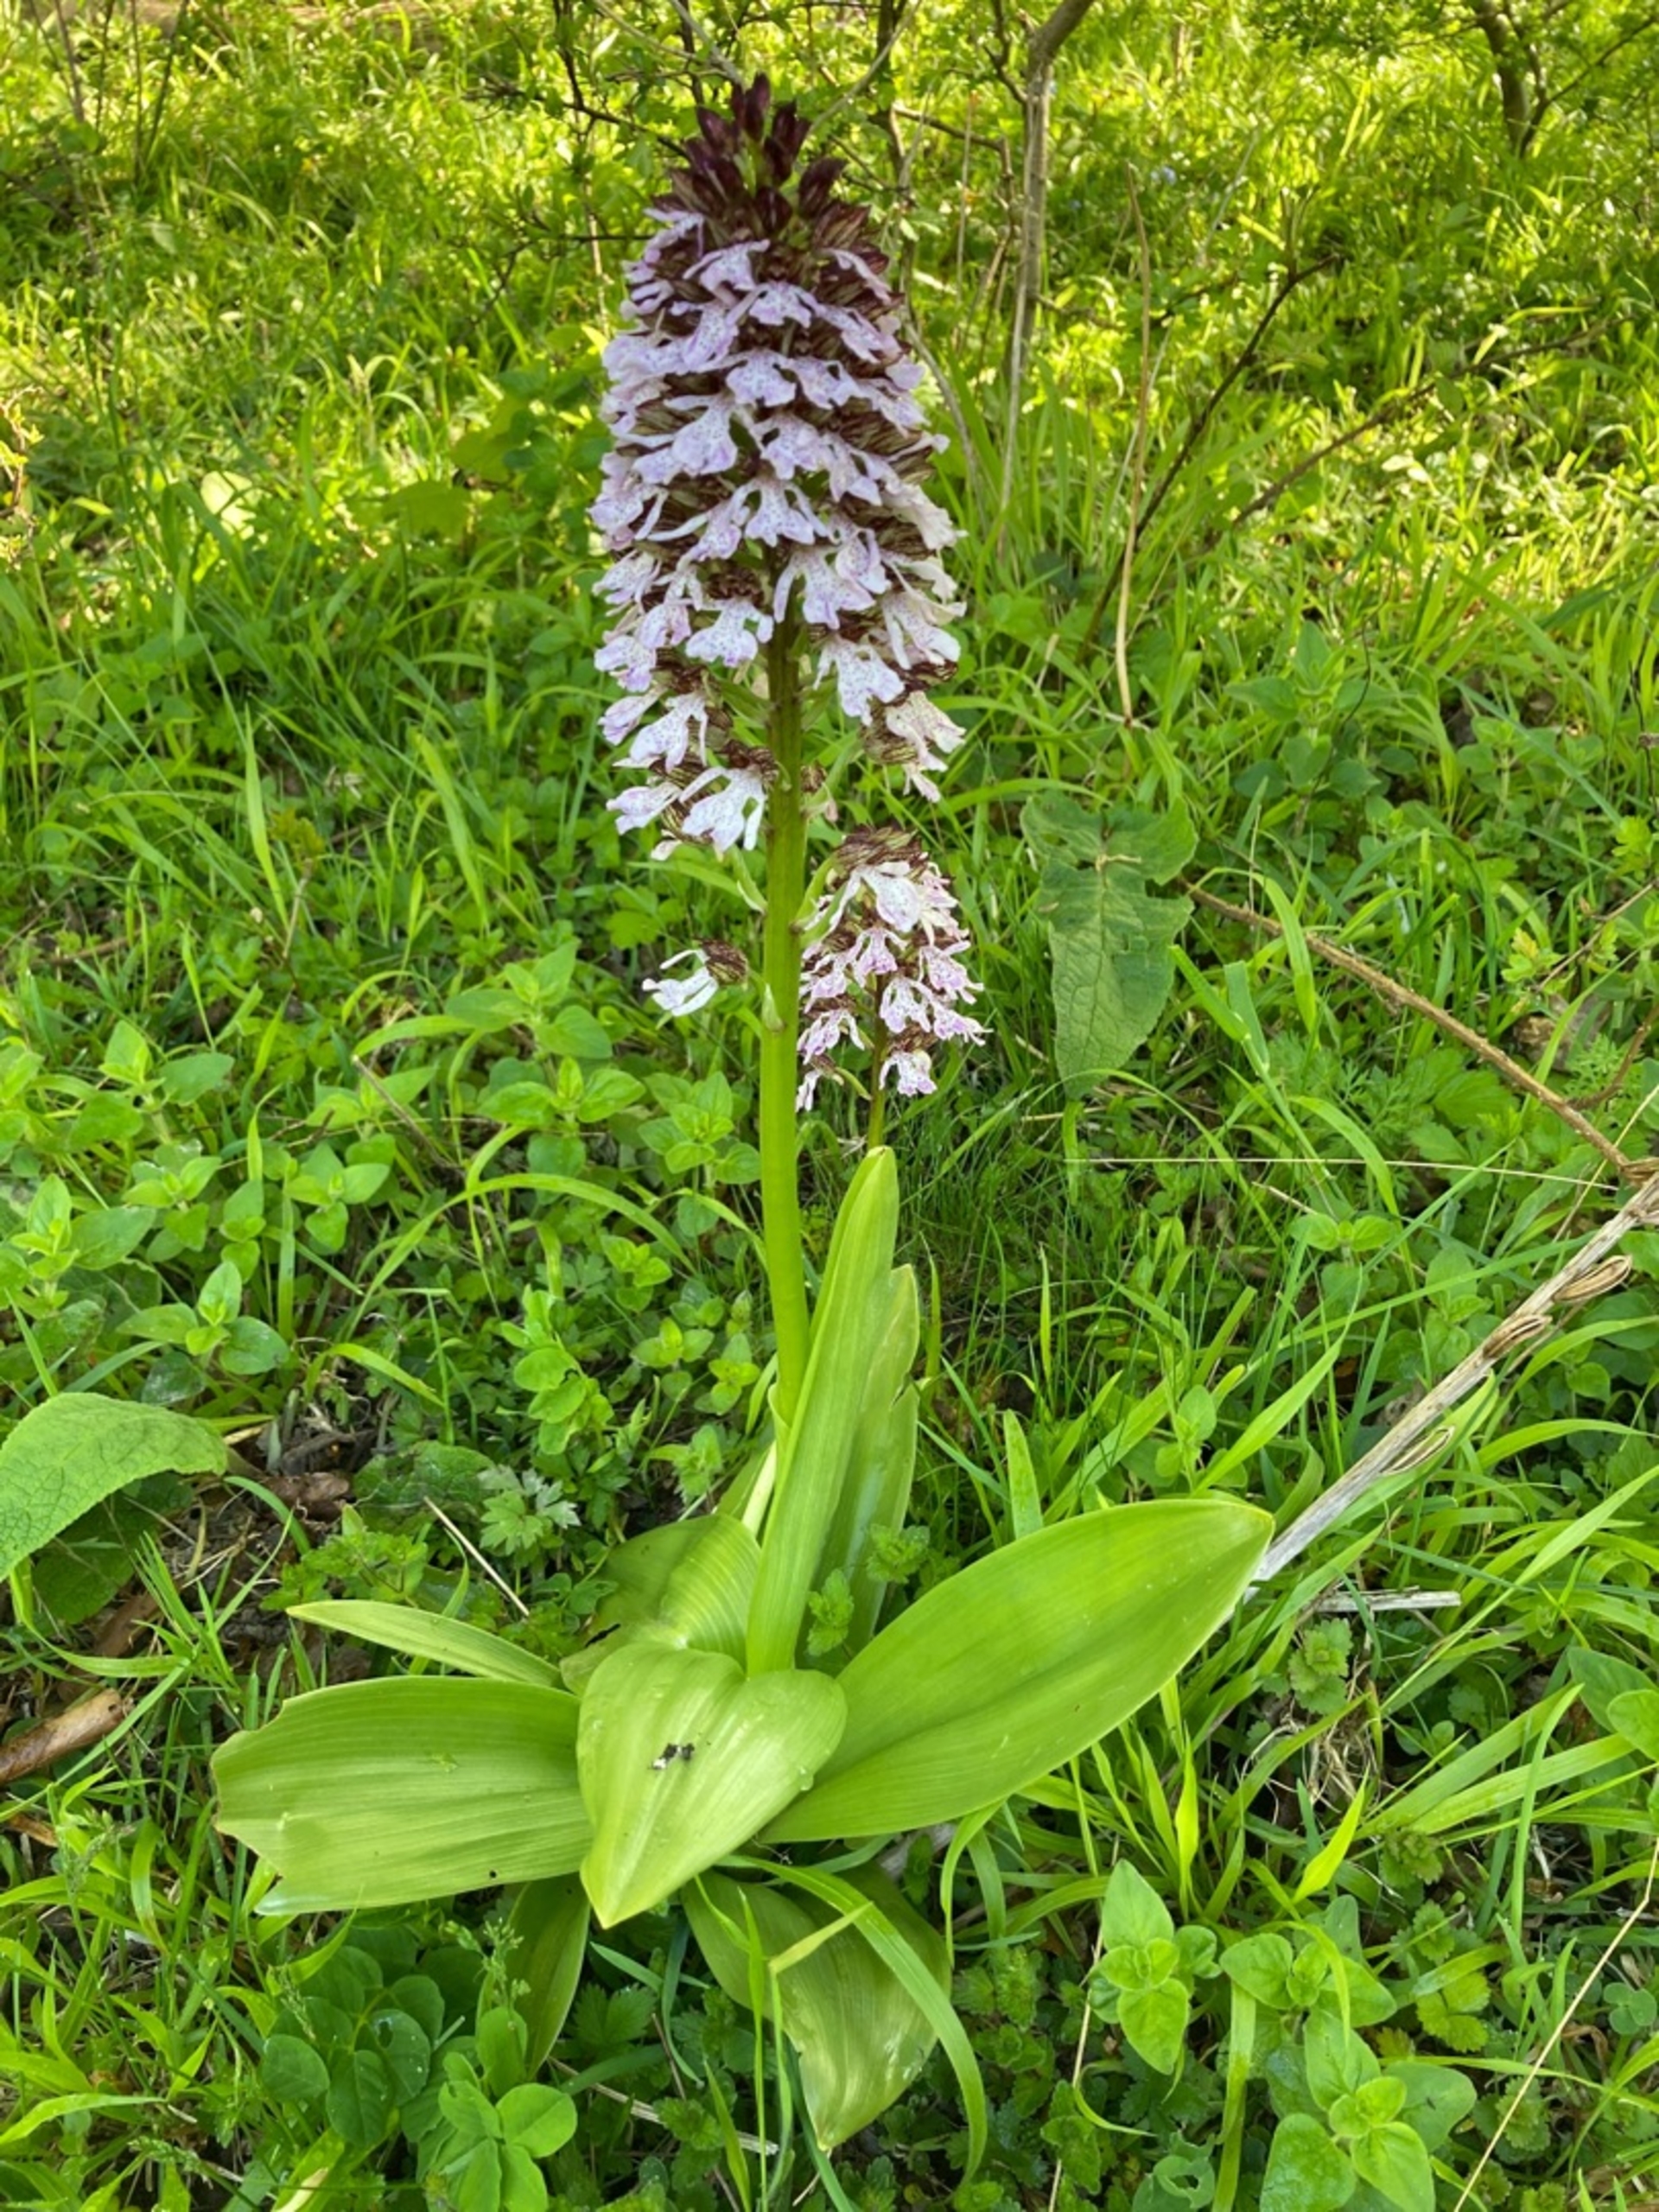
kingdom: Plantae
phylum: Tracheophyta
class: Liliopsida
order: Asparagales
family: Orchidaceae
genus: Orchis
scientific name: Orchis purpurea
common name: Stor gøgeurt
